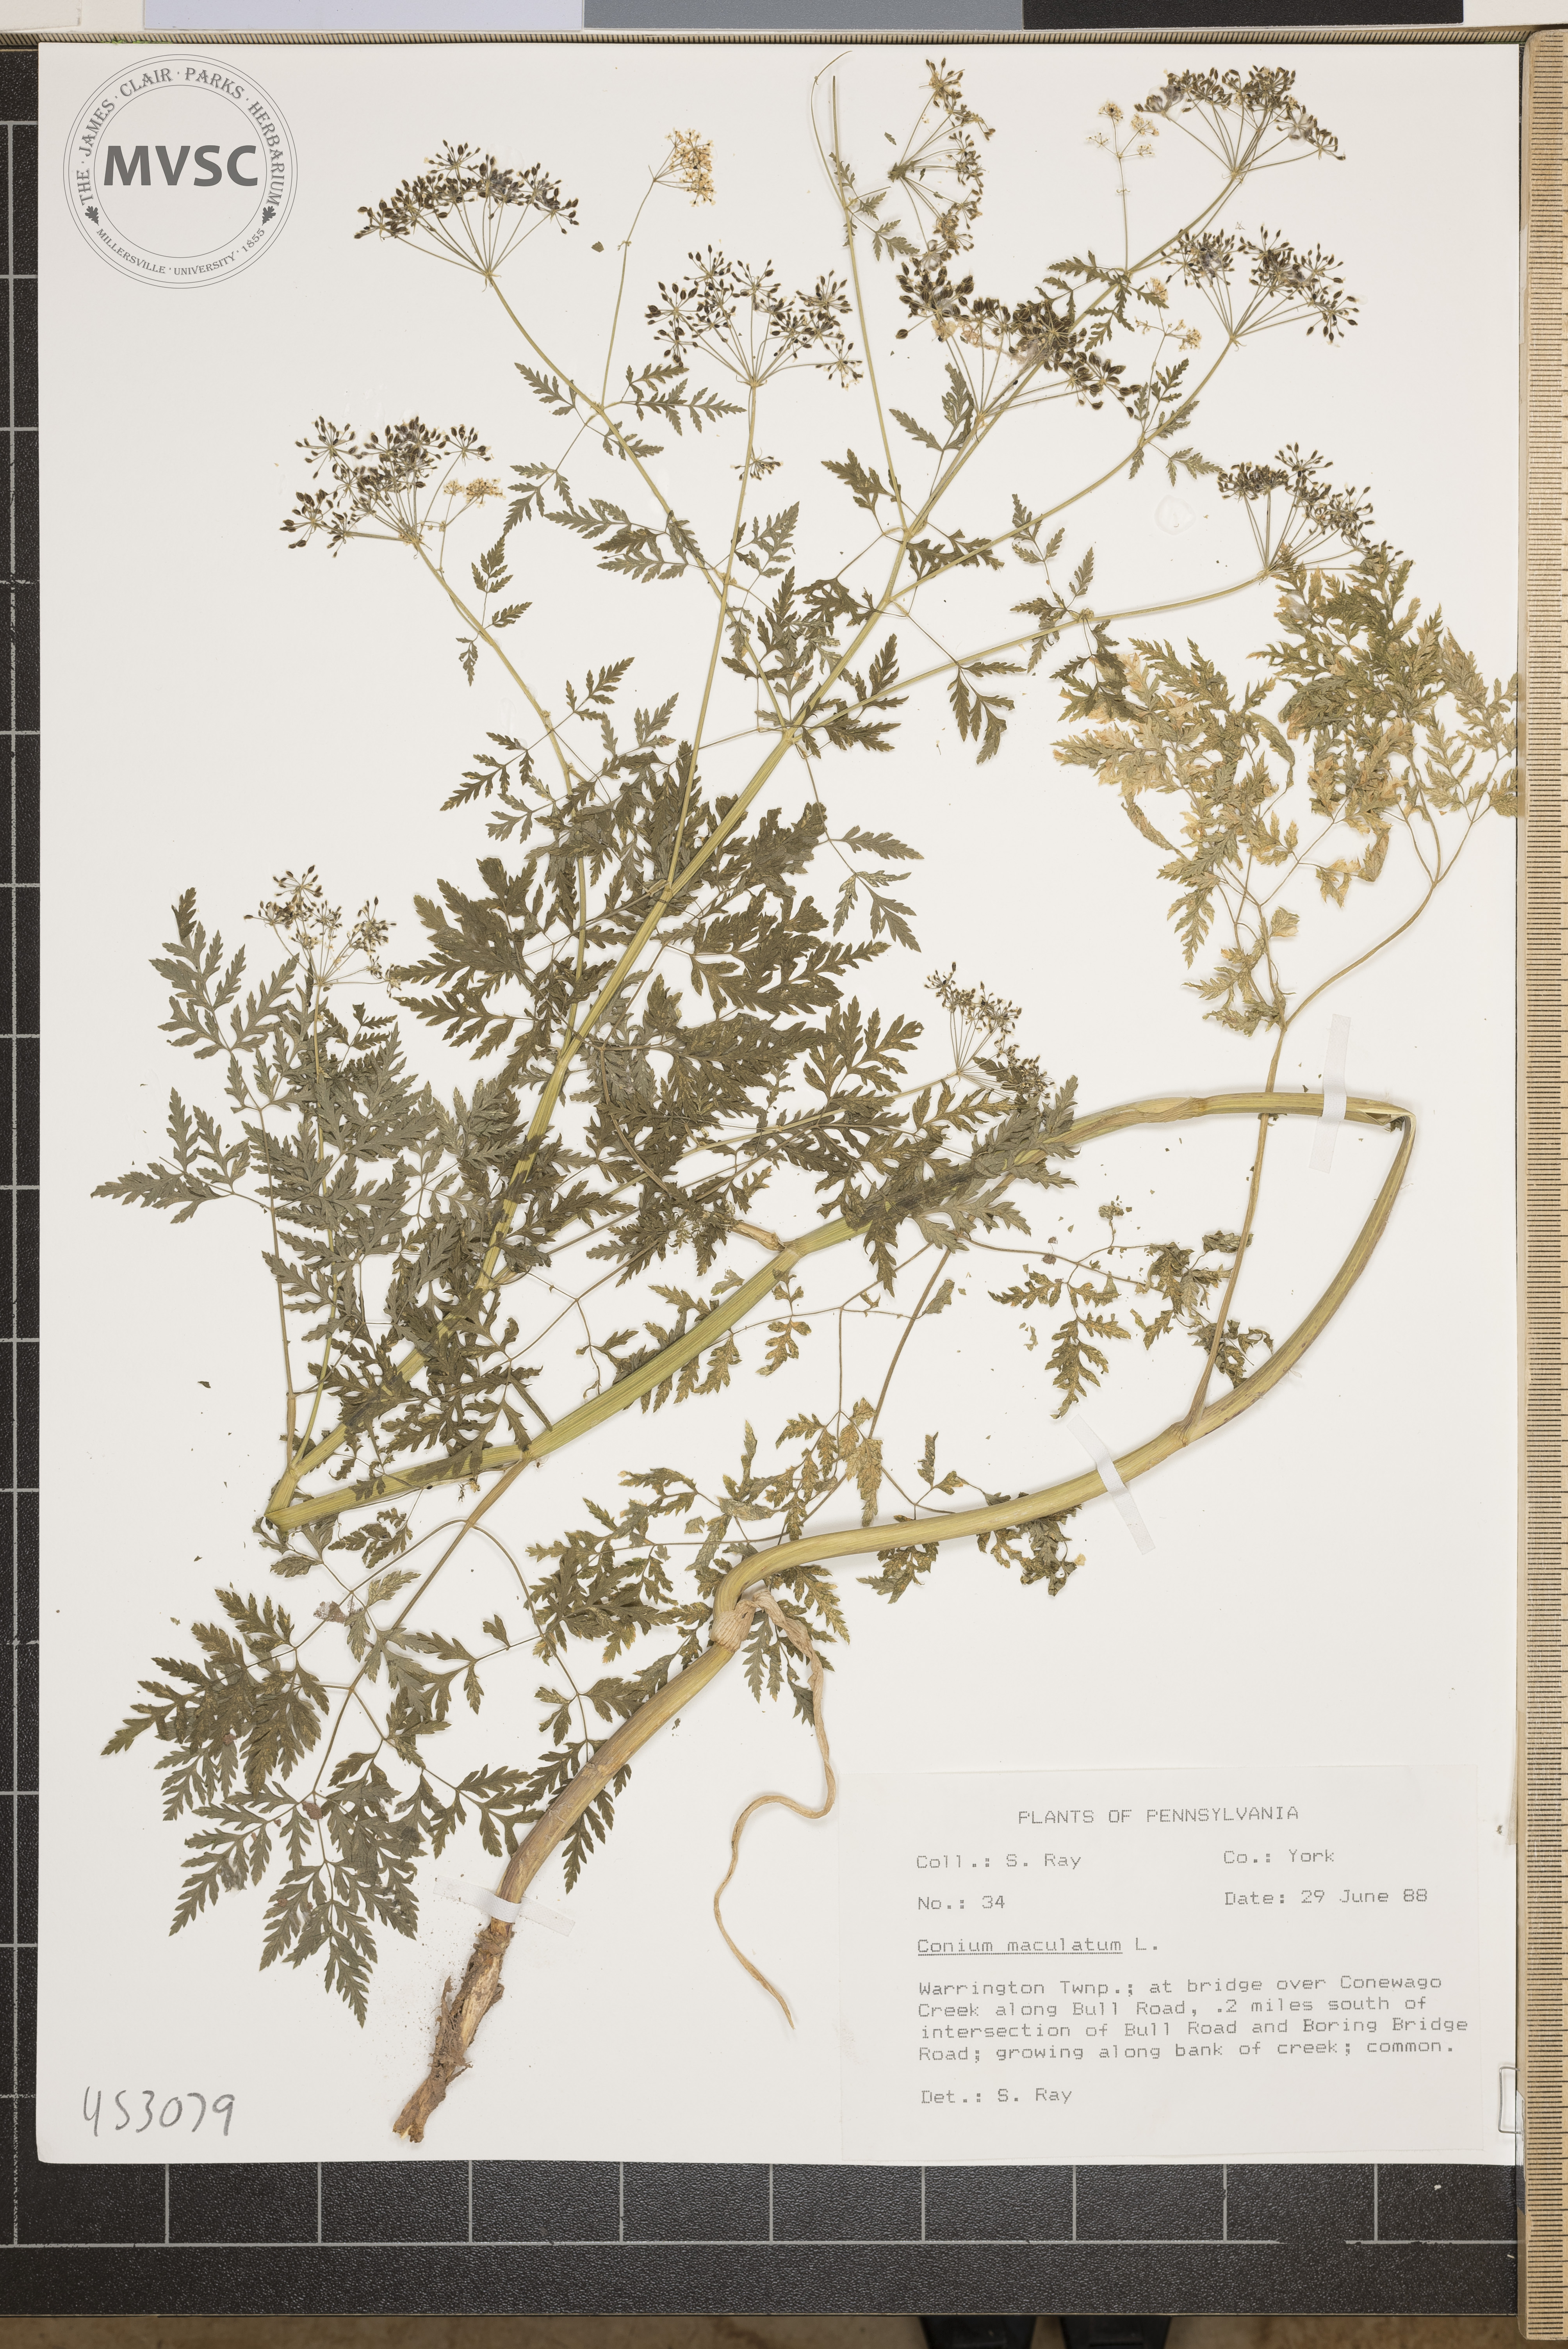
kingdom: Plantae
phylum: Tracheophyta
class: Magnoliopsida
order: Apiales
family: Apiaceae
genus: Conium
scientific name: Conium maculatum
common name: Hemlock
